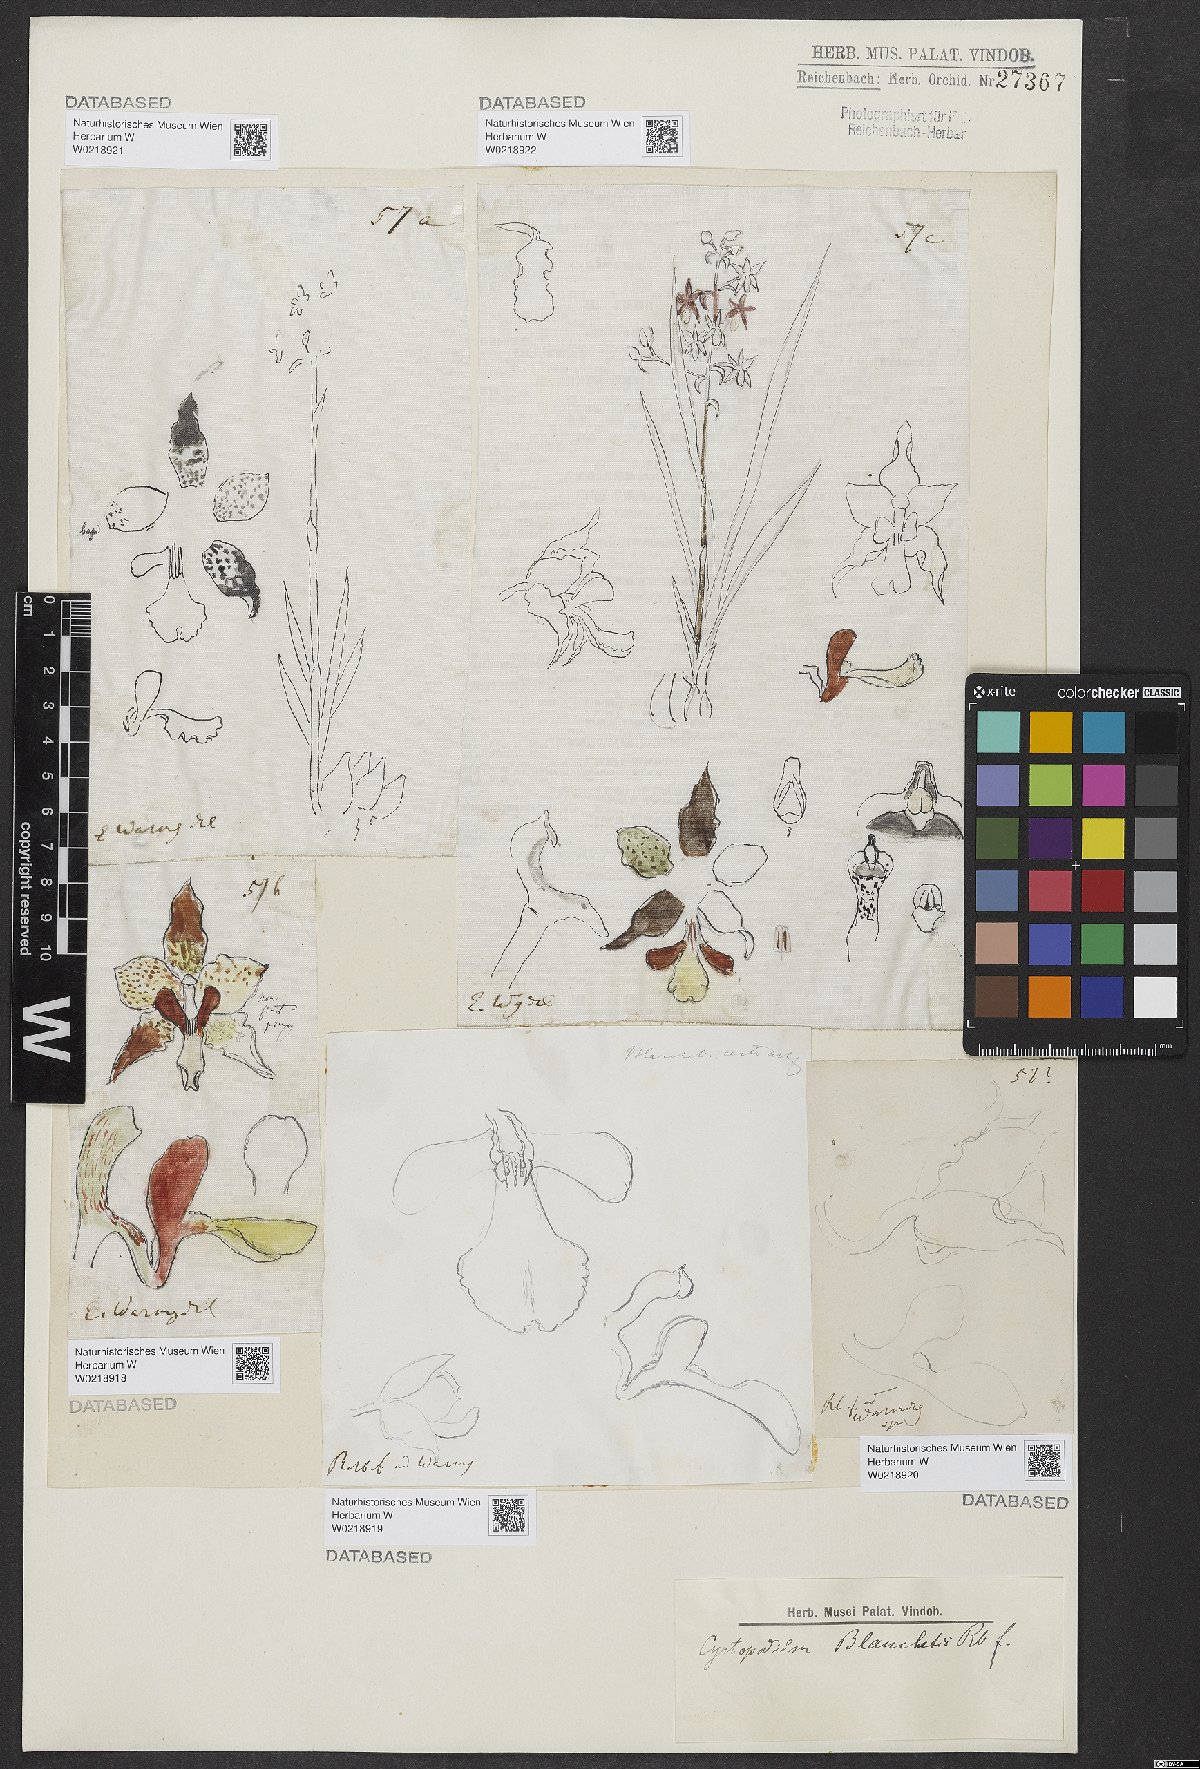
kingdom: Plantae
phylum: Tracheophyta
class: Liliopsida
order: Asparagales
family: Orchidaceae
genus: Cyrtopodium
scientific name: Cyrtopodium blanchetii
